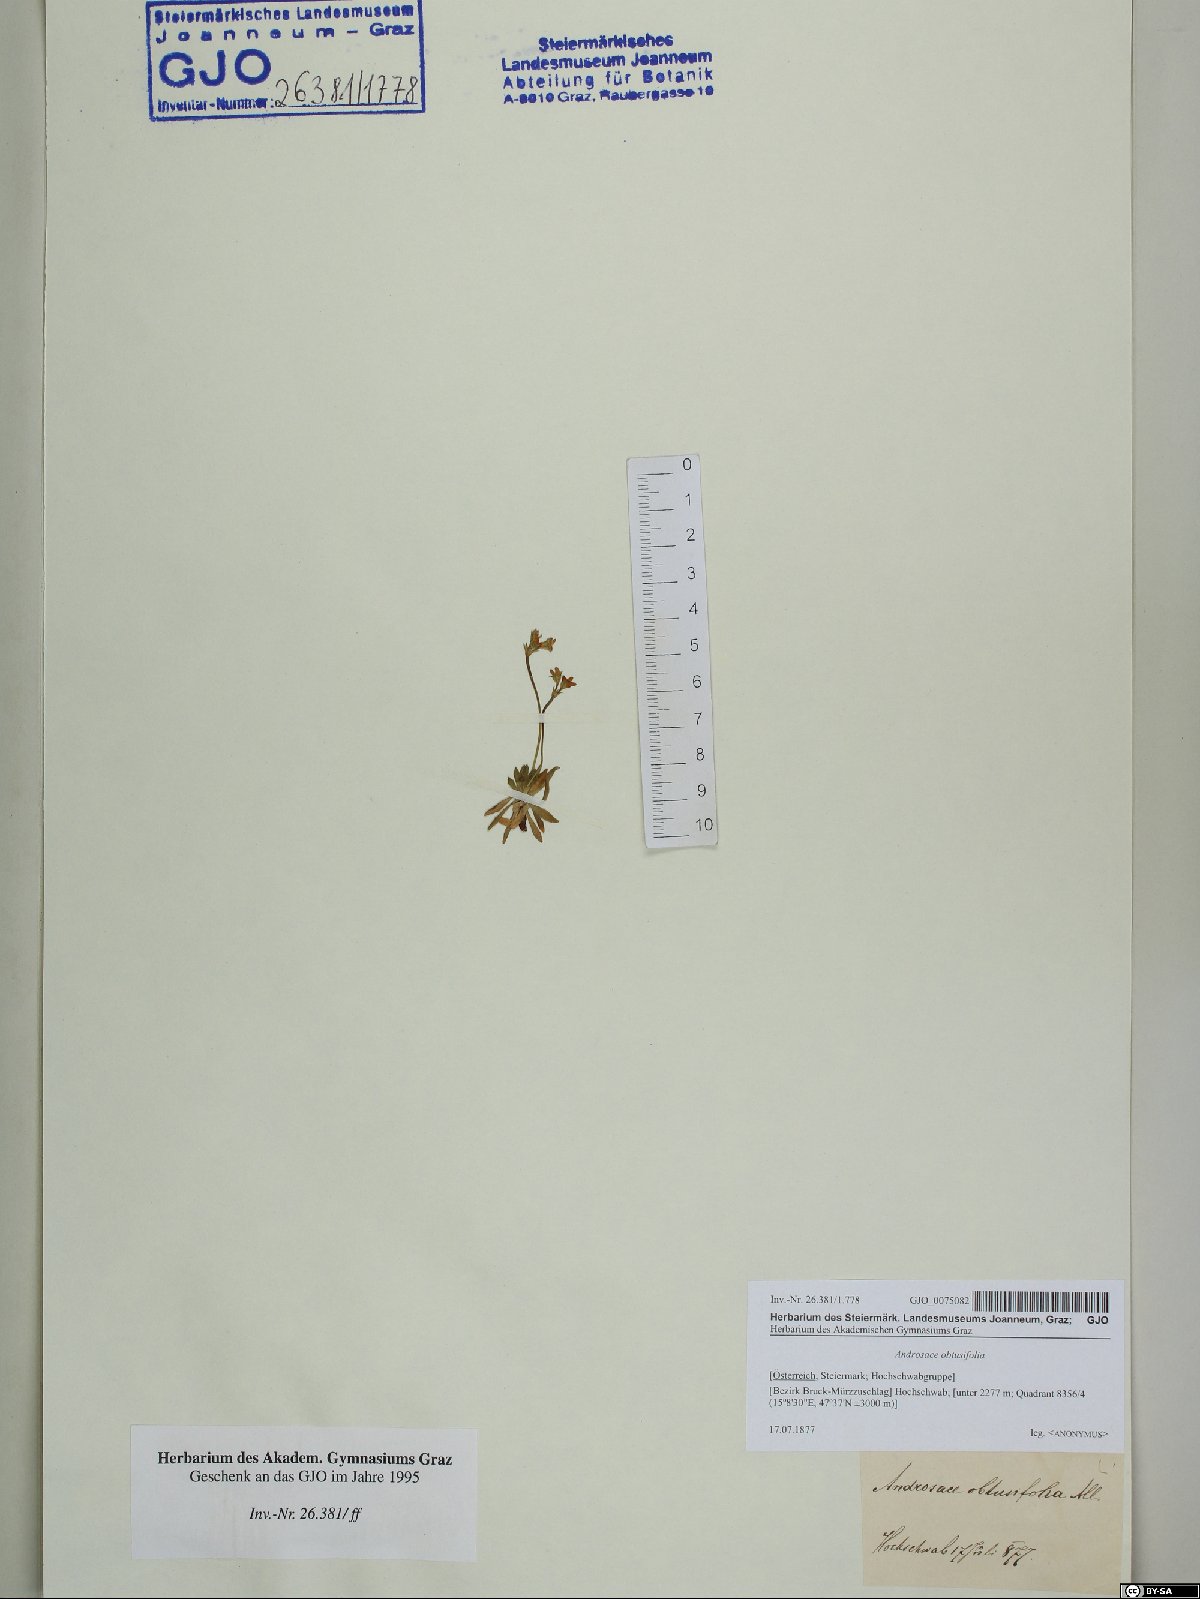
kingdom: Plantae
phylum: Tracheophyta
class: Magnoliopsida
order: Ericales
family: Primulaceae
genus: Androsace
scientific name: Androsace obtusifolia
